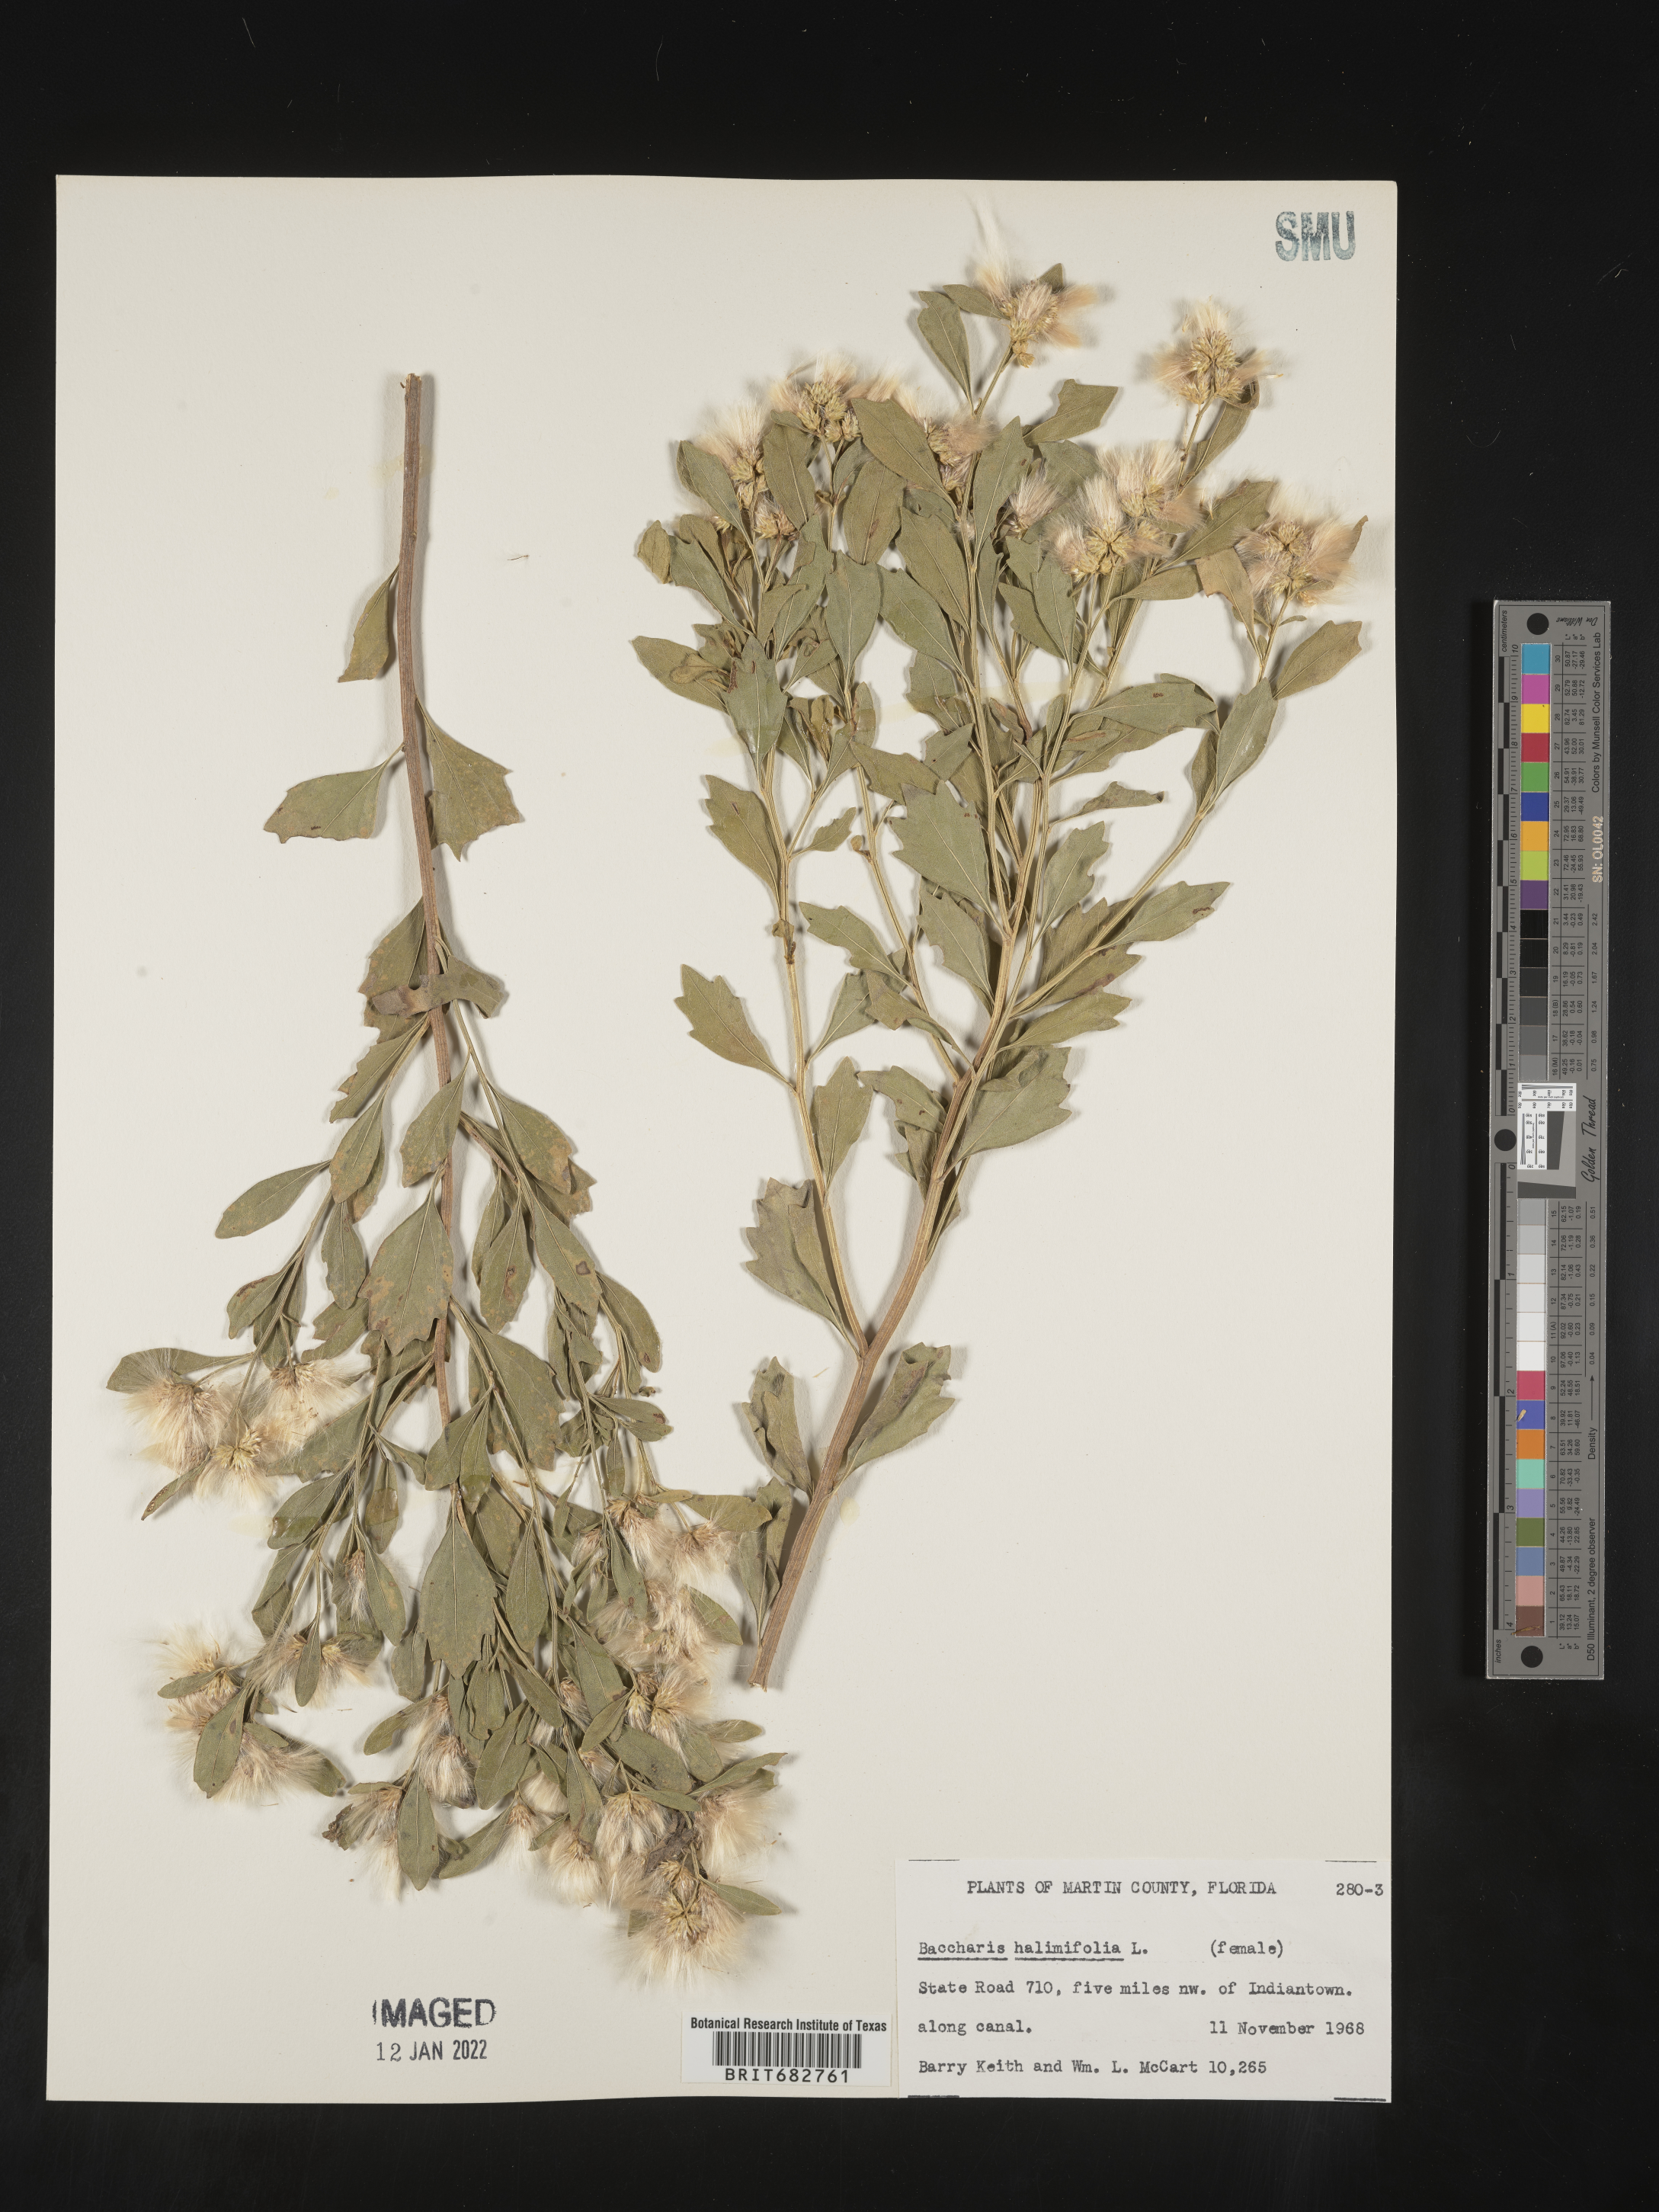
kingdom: Plantae
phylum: Tracheophyta
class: Magnoliopsida
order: Asterales
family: Asteraceae
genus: Nidorella
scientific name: Nidorella ivifolia
